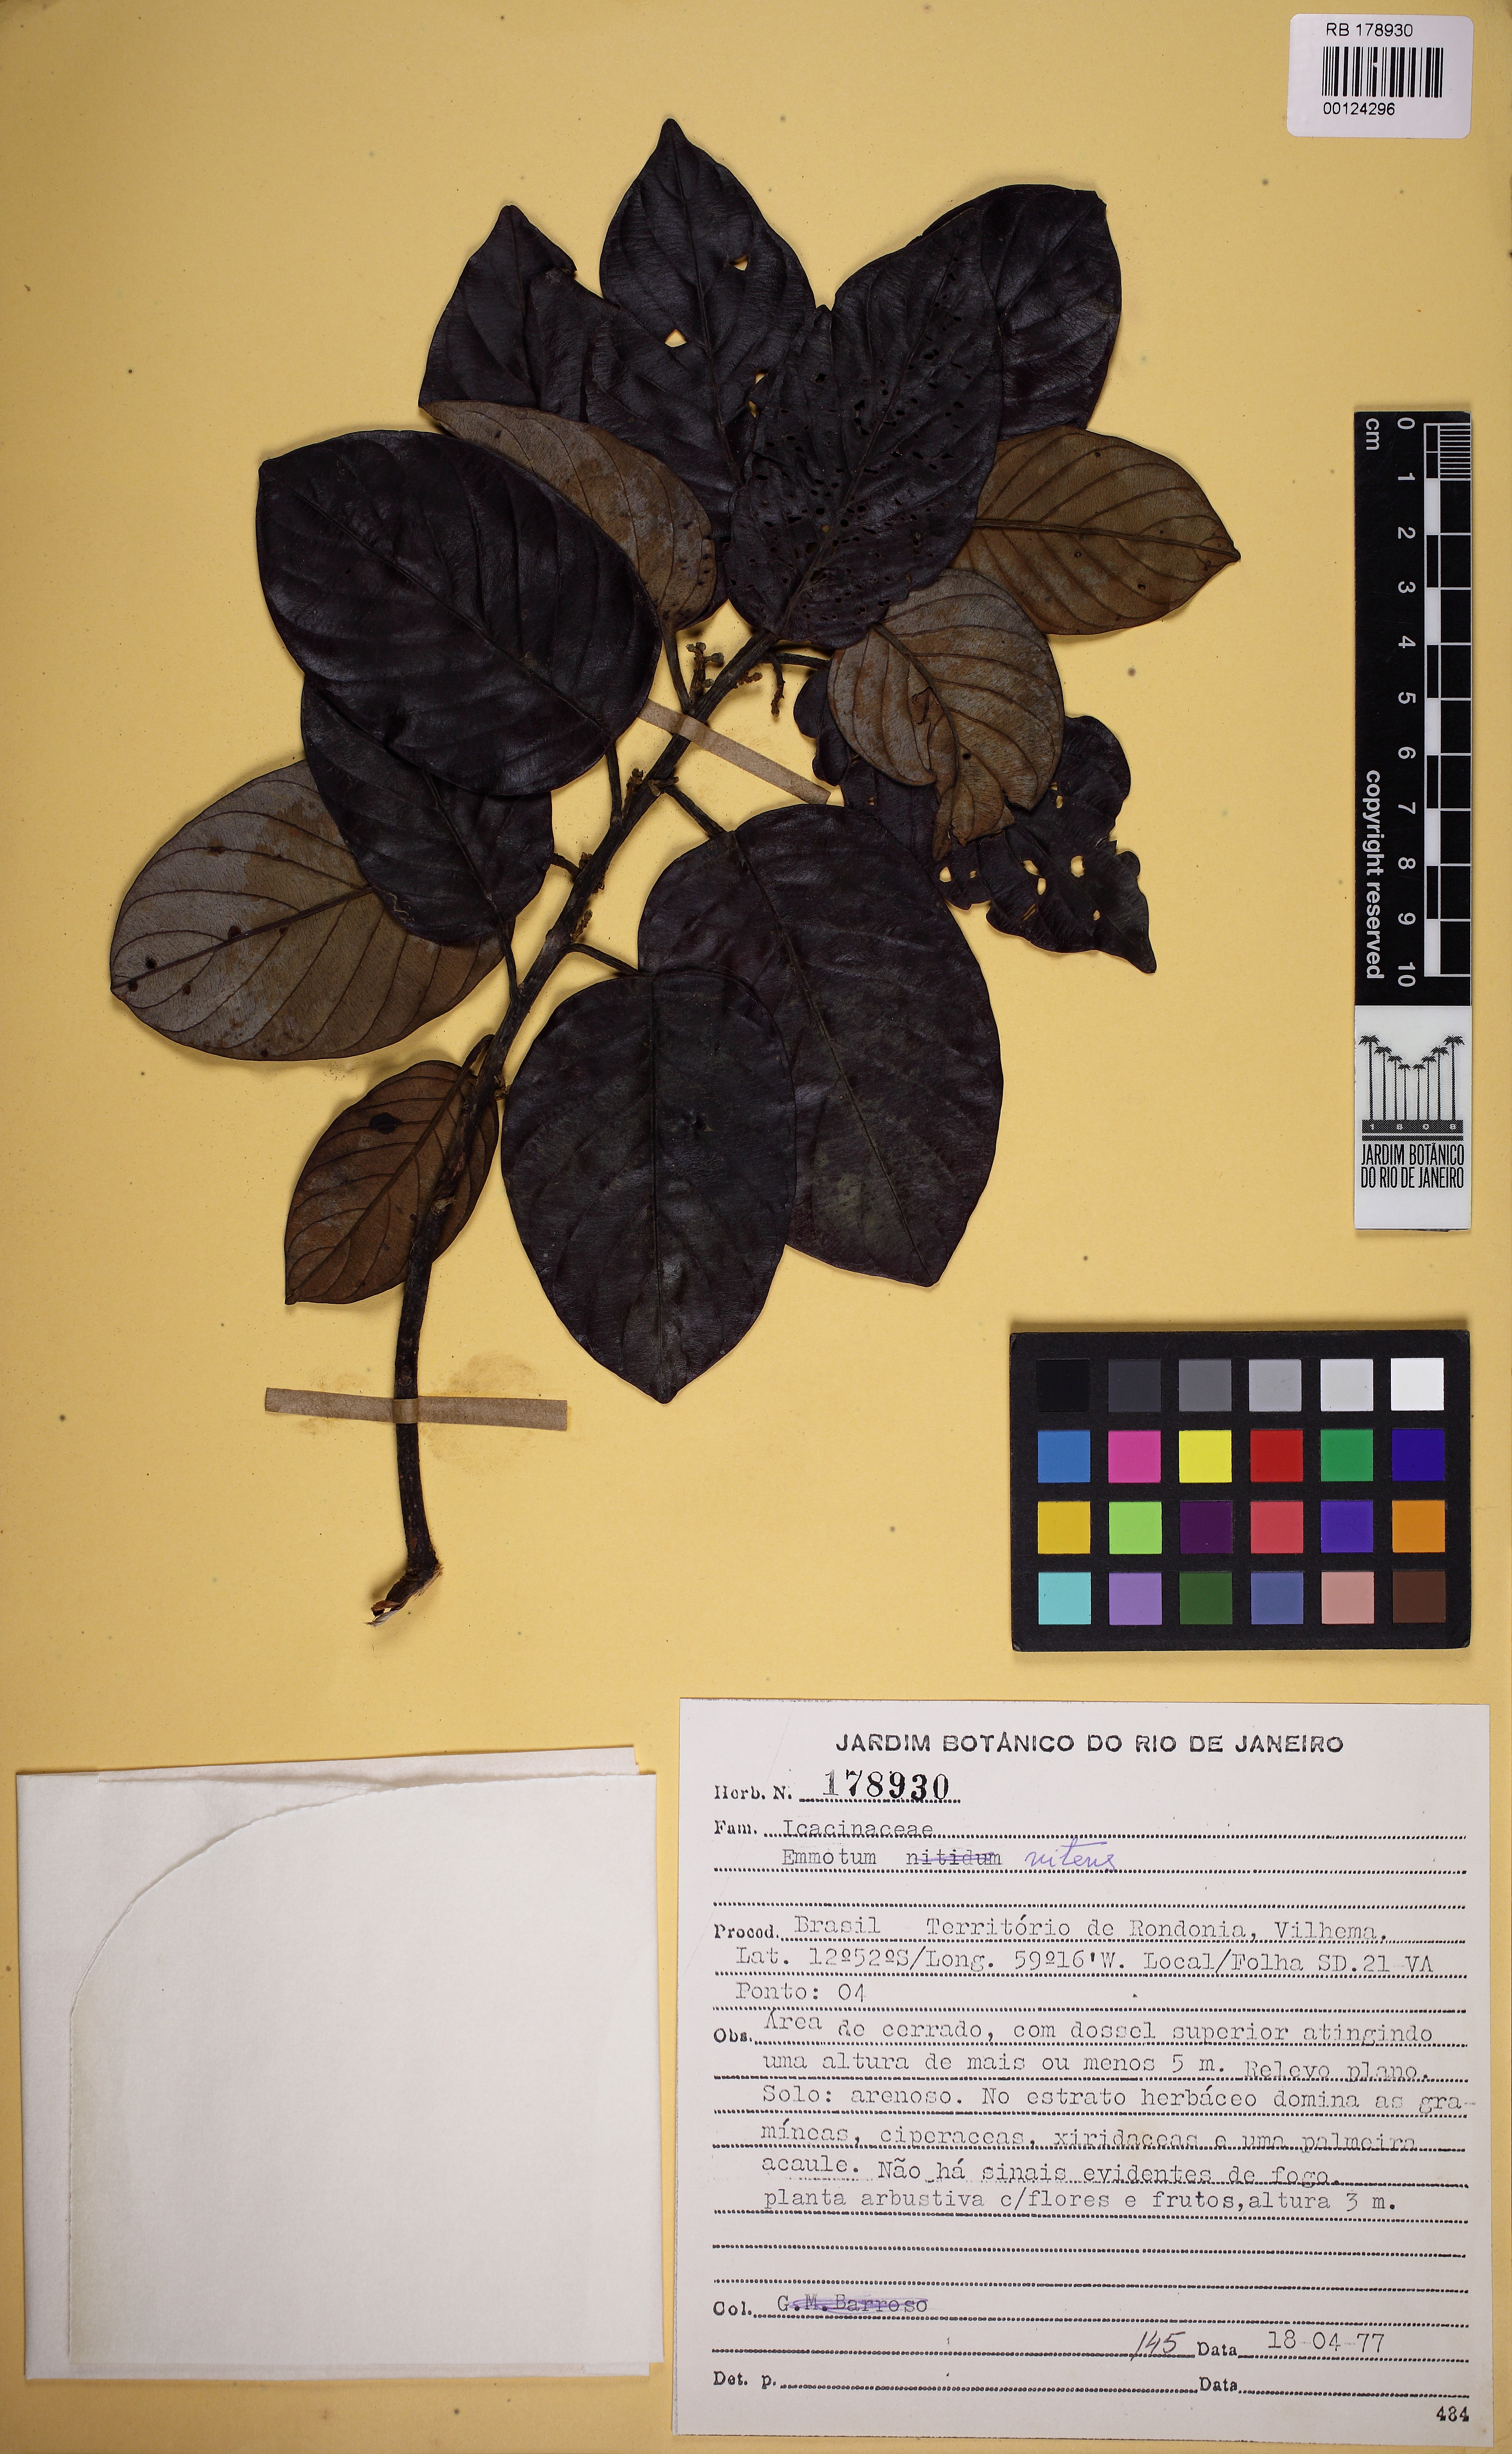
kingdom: Plantae
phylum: Tracheophyta
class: Magnoliopsida
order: Metteniusales
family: Metteniusaceae
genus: Emmotum
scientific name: Emmotum nitens
